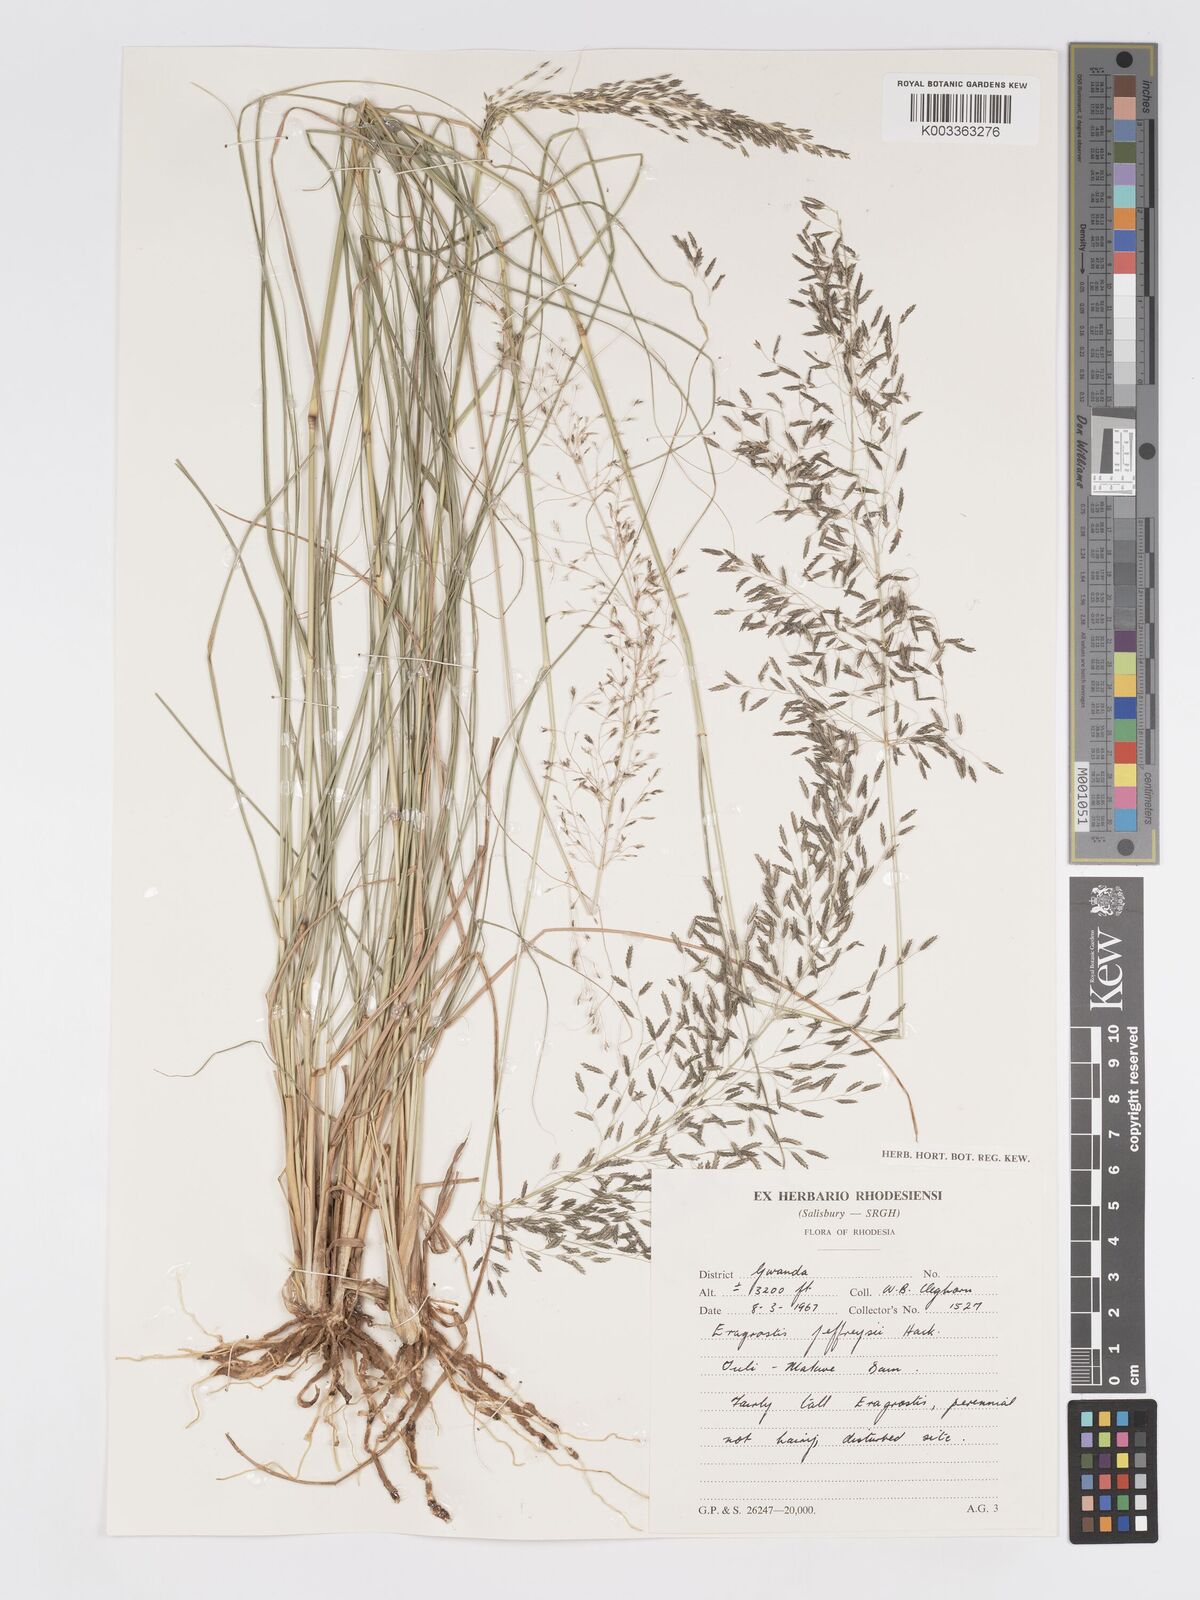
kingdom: Plantae
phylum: Tracheophyta
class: Liliopsida
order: Poales
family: Poaceae
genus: Eragrostis
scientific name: Eragrostis curvula
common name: African love-grass
